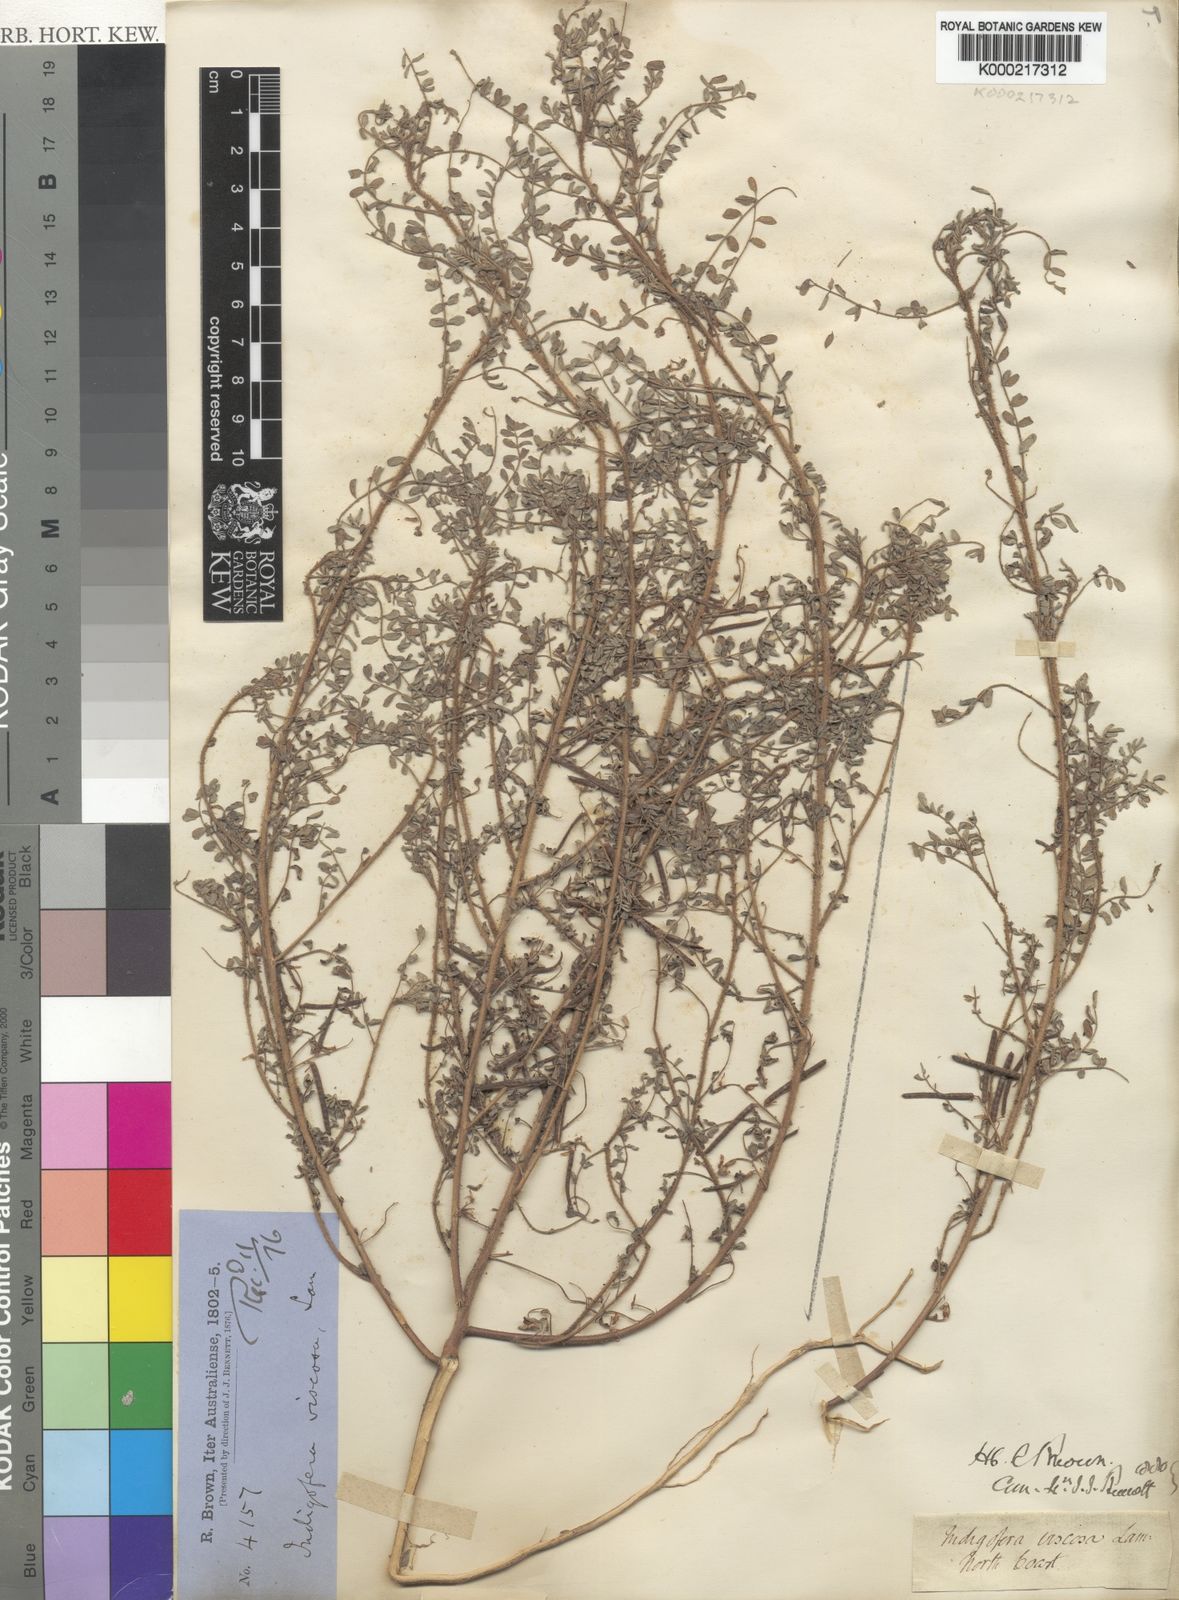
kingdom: Plantae
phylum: Tracheophyta
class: Magnoliopsida
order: Fabales
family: Fabaceae
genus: Indigofera
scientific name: Indigofera colutea
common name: Rusty indigo
